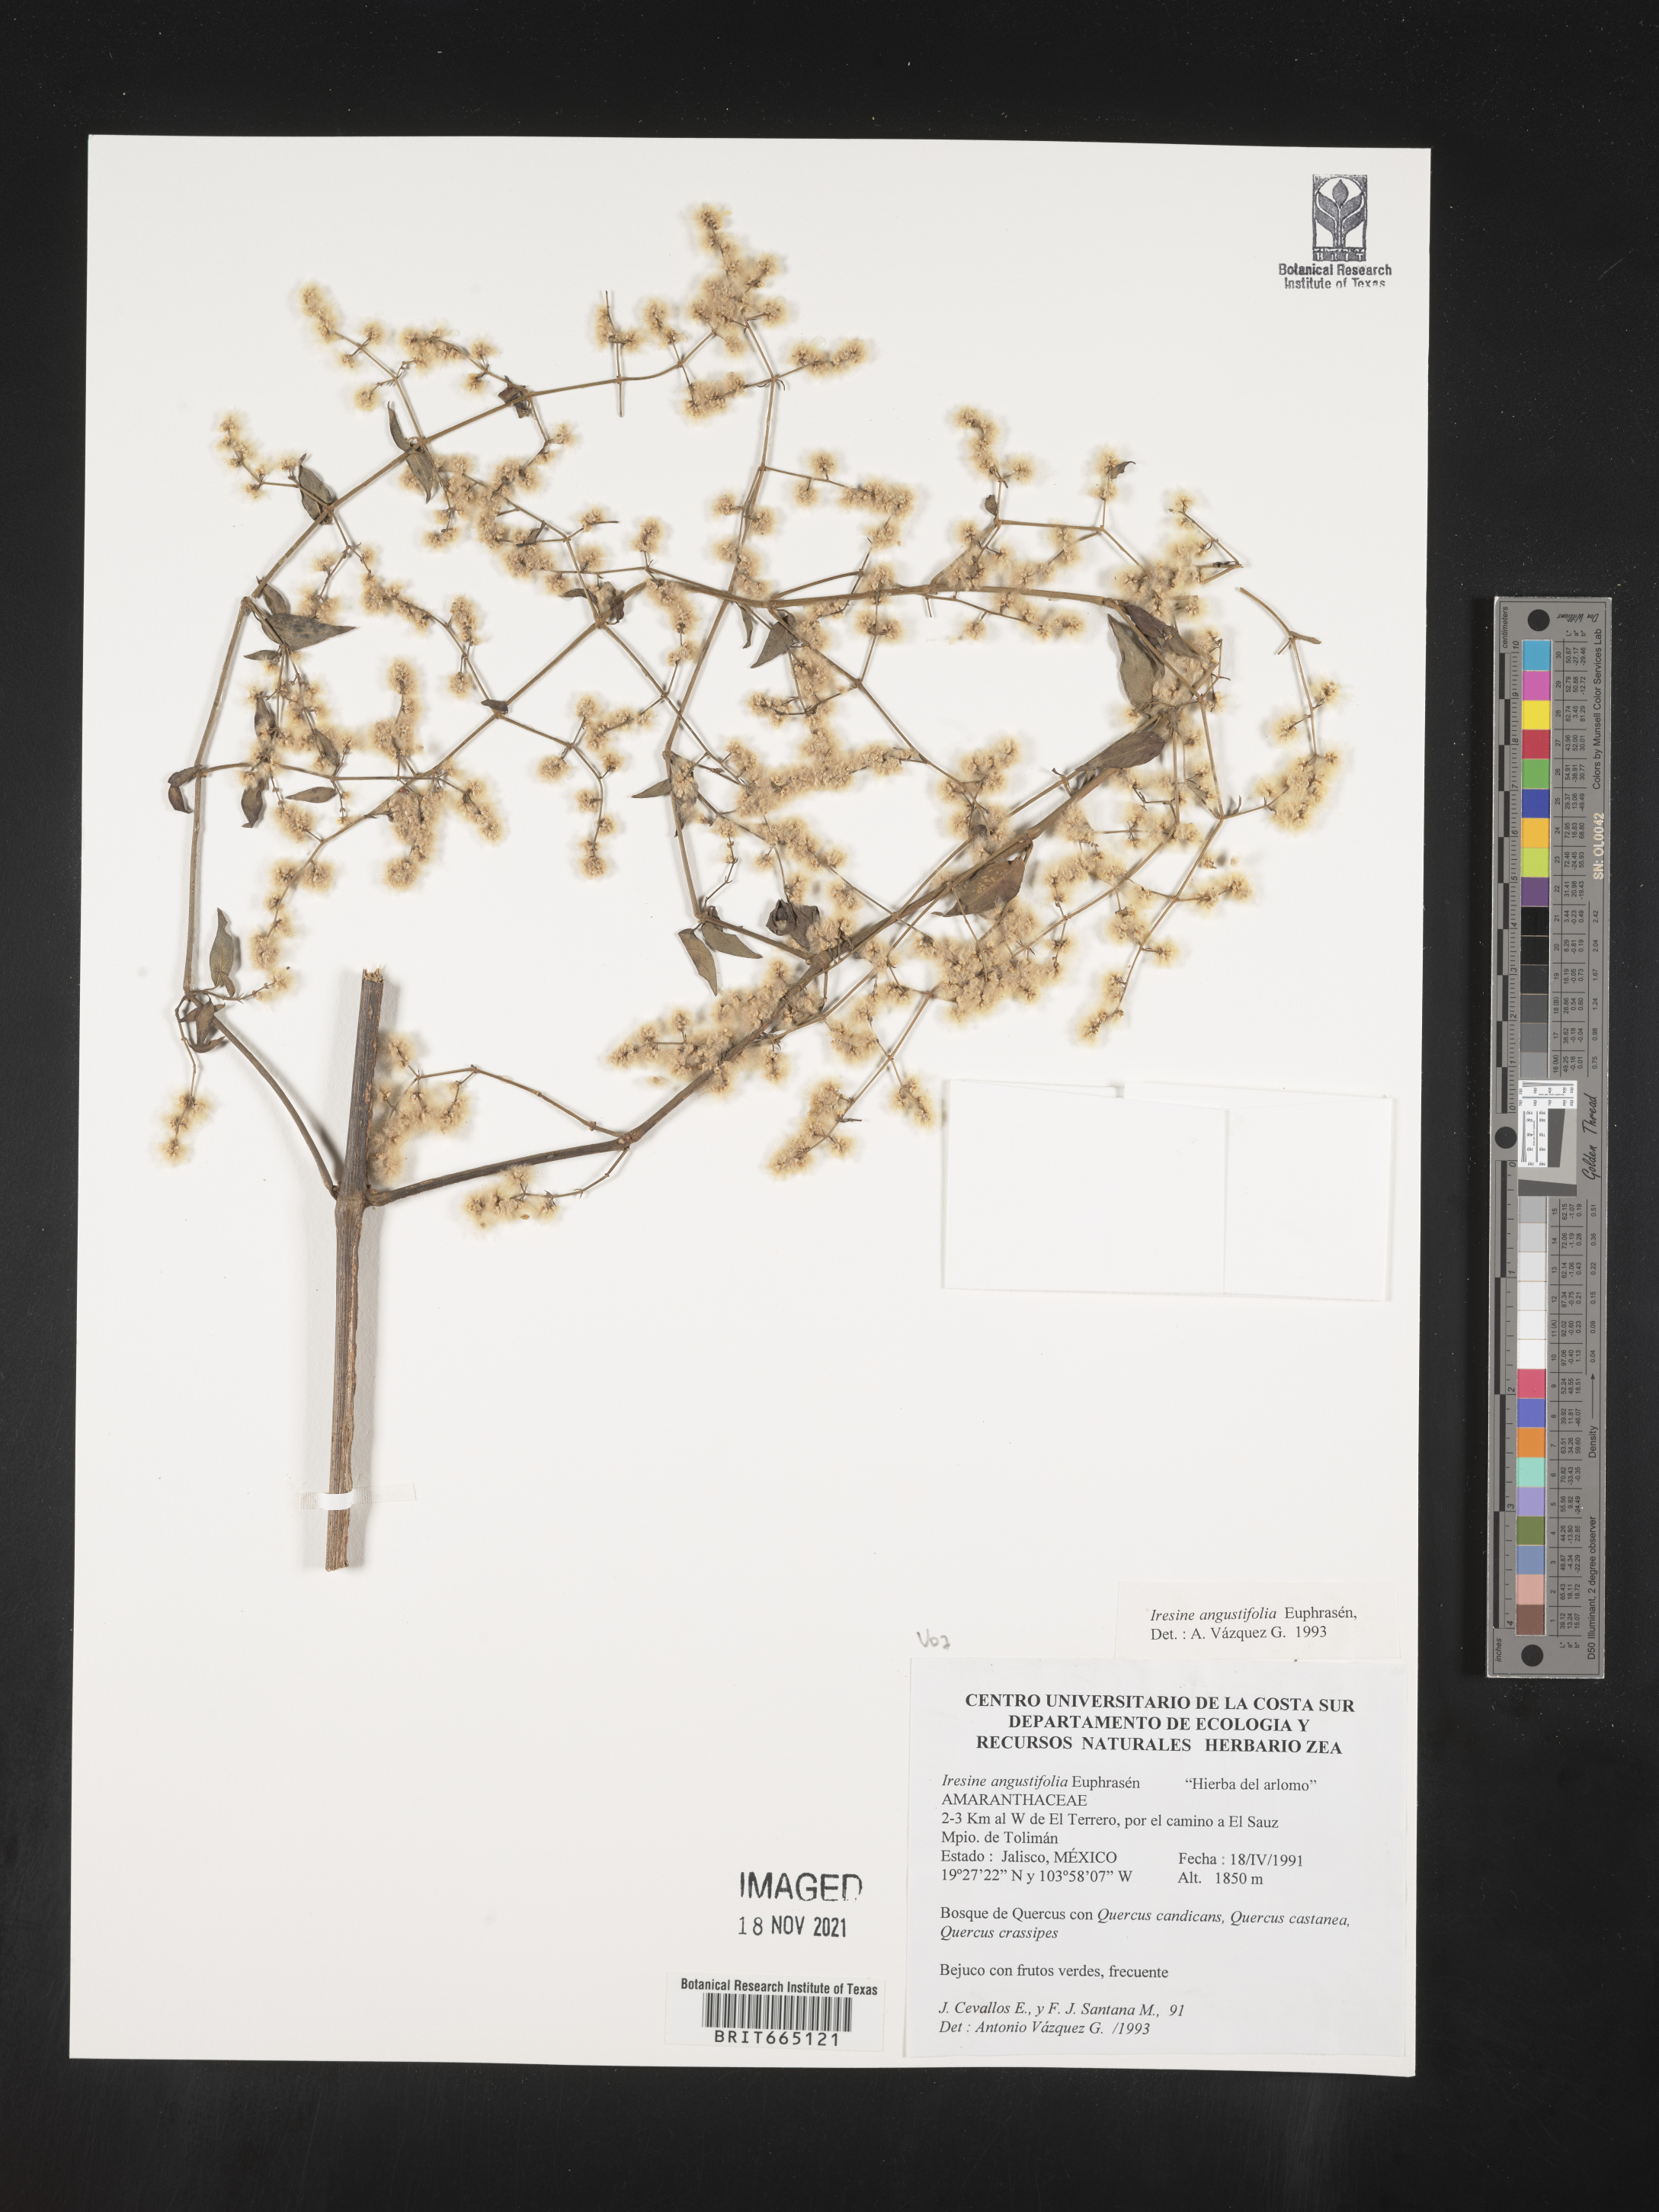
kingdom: Plantae
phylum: Tracheophyta
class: Magnoliopsida
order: Caryophyllales
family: Amaranthaceae
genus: Iresine
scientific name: Iresine
